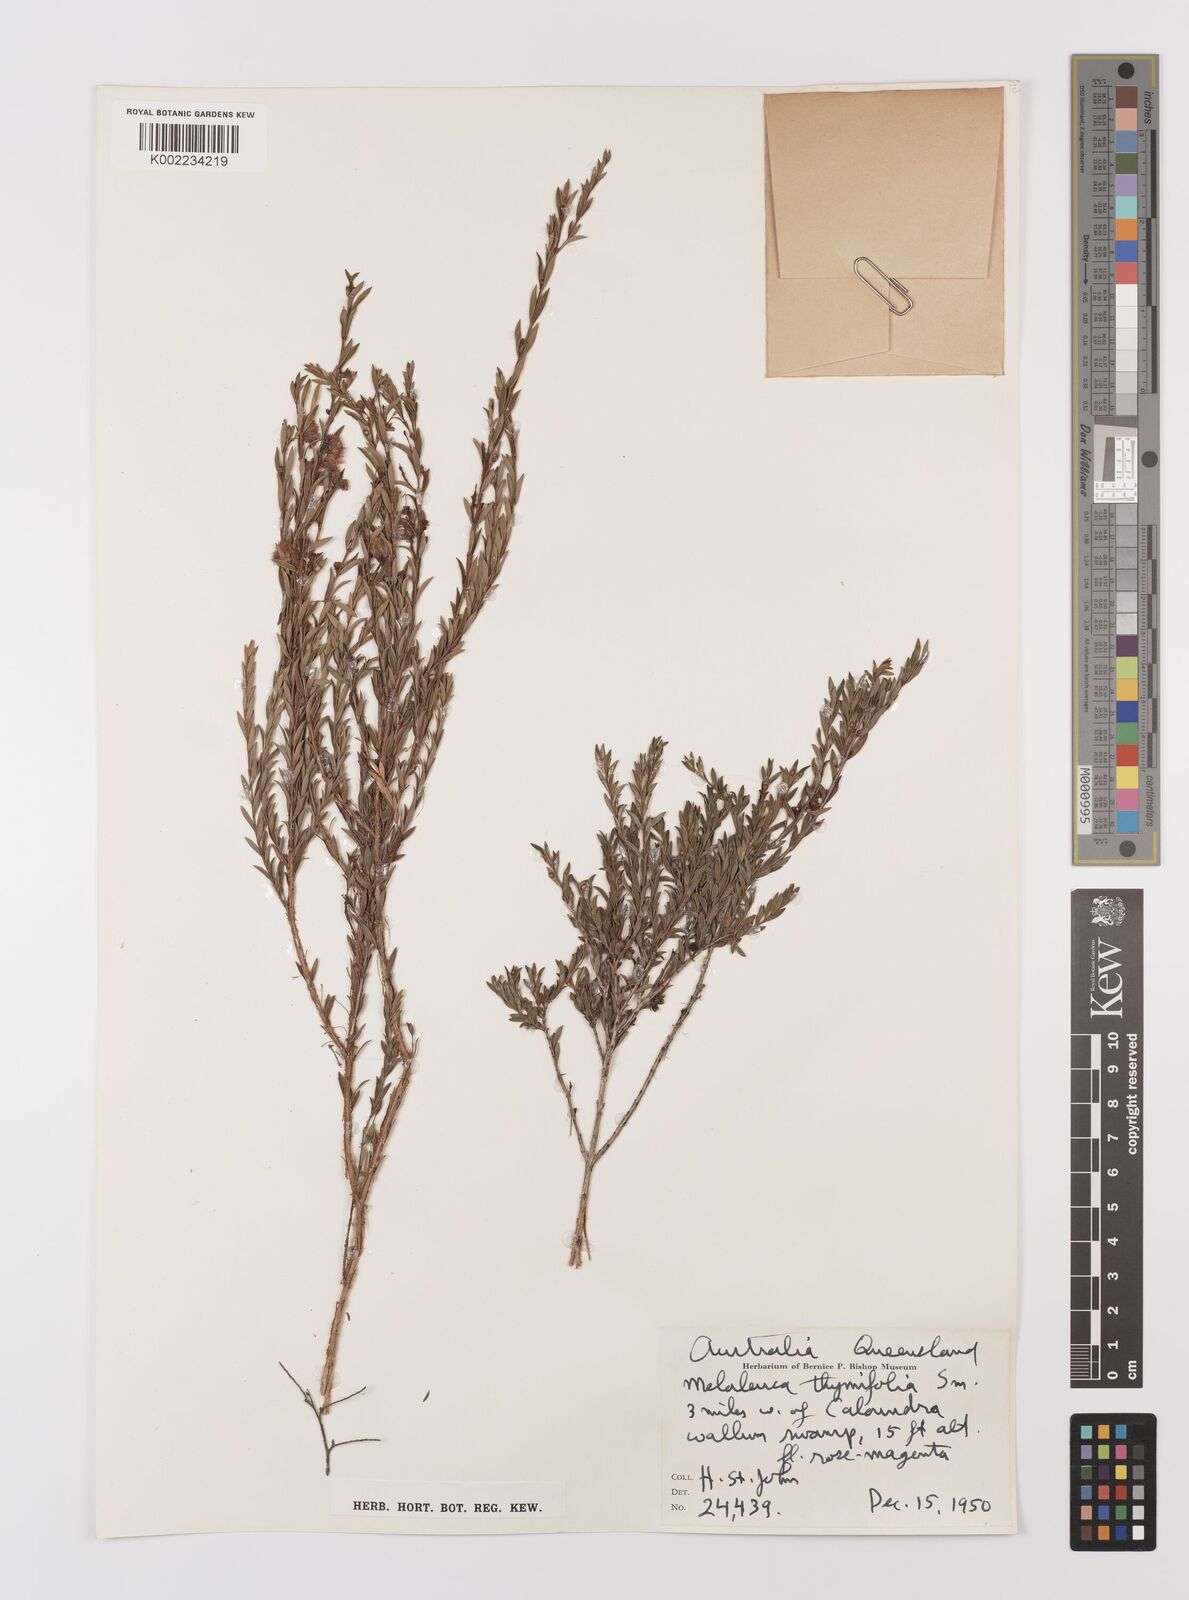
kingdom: Plantae
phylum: Tracheophyta
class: Magnoliopsida
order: Myrtales
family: Myrtaceae
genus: Melaleuca
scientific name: Melaleuca thymifolia
